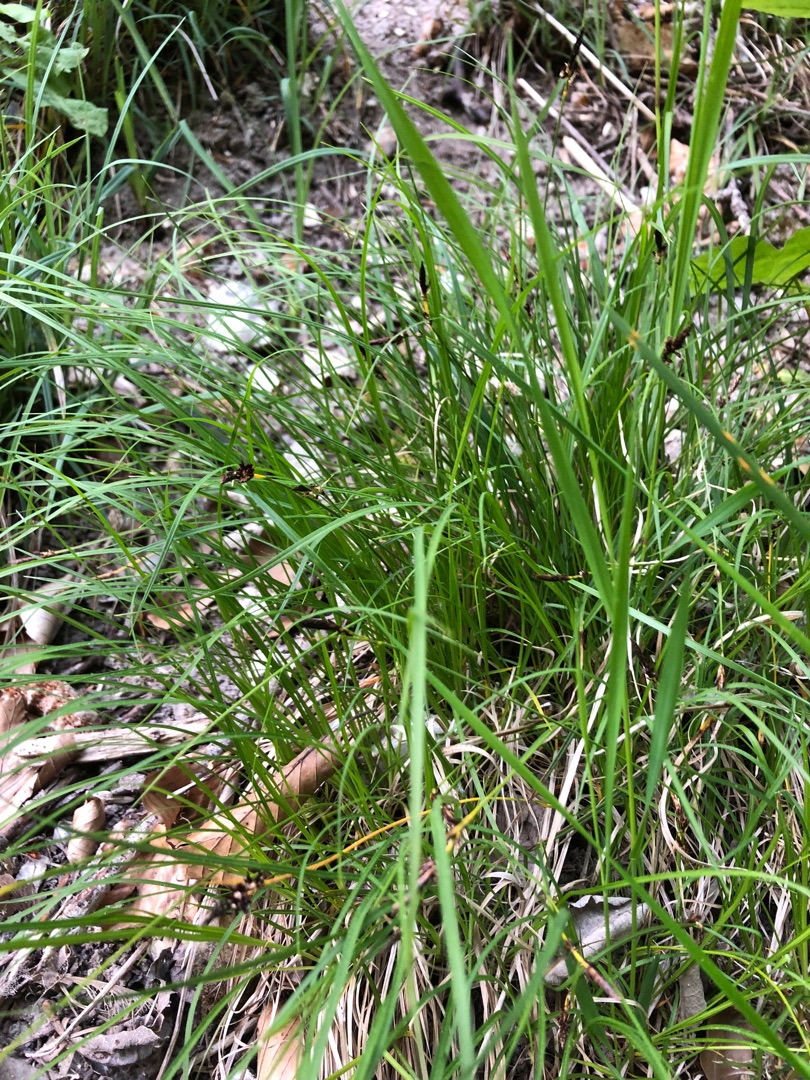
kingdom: Plantae
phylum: Tracheophyta
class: Liliopsida
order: Poales
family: Cyperaceae
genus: Carex
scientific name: Carex montana
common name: Bakke-star
